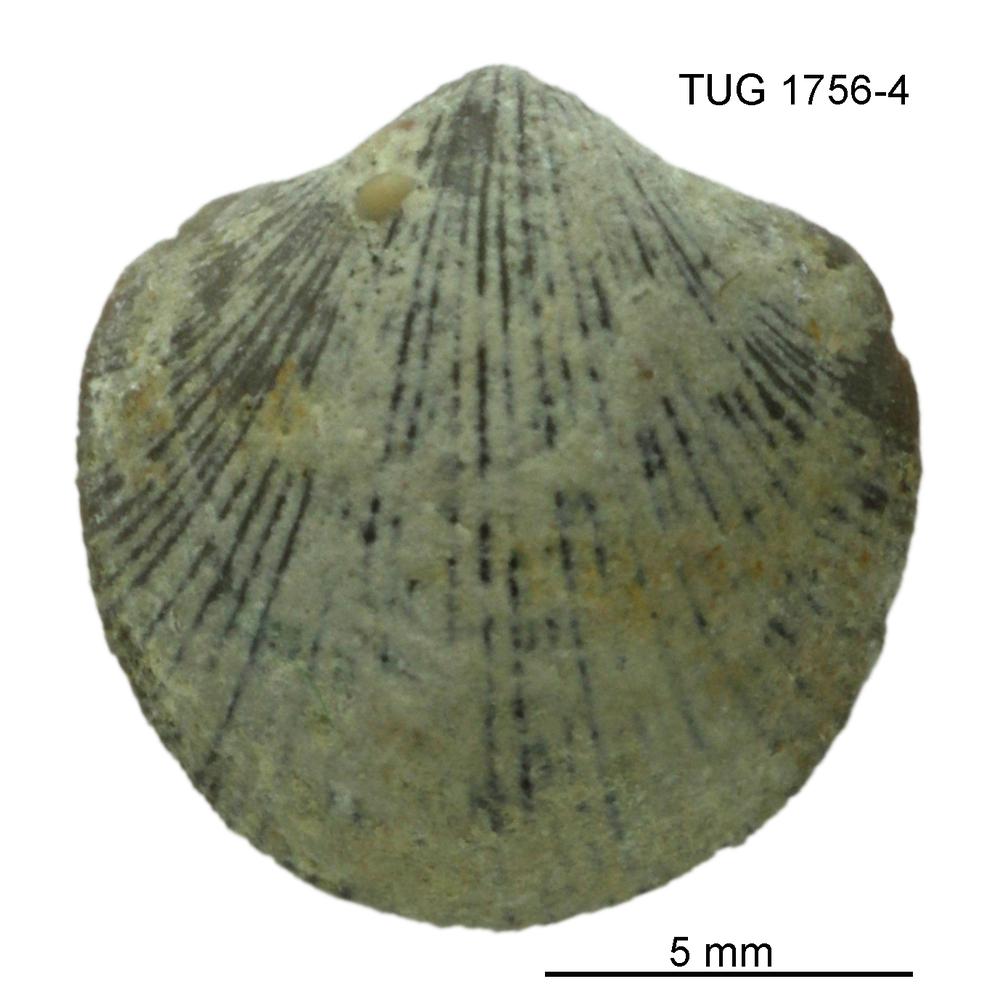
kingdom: Animalia
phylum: Brachiopoda
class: Rhynchonellata
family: Dalmanellidae
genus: Resserella
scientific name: Resserella Orthis canalis
